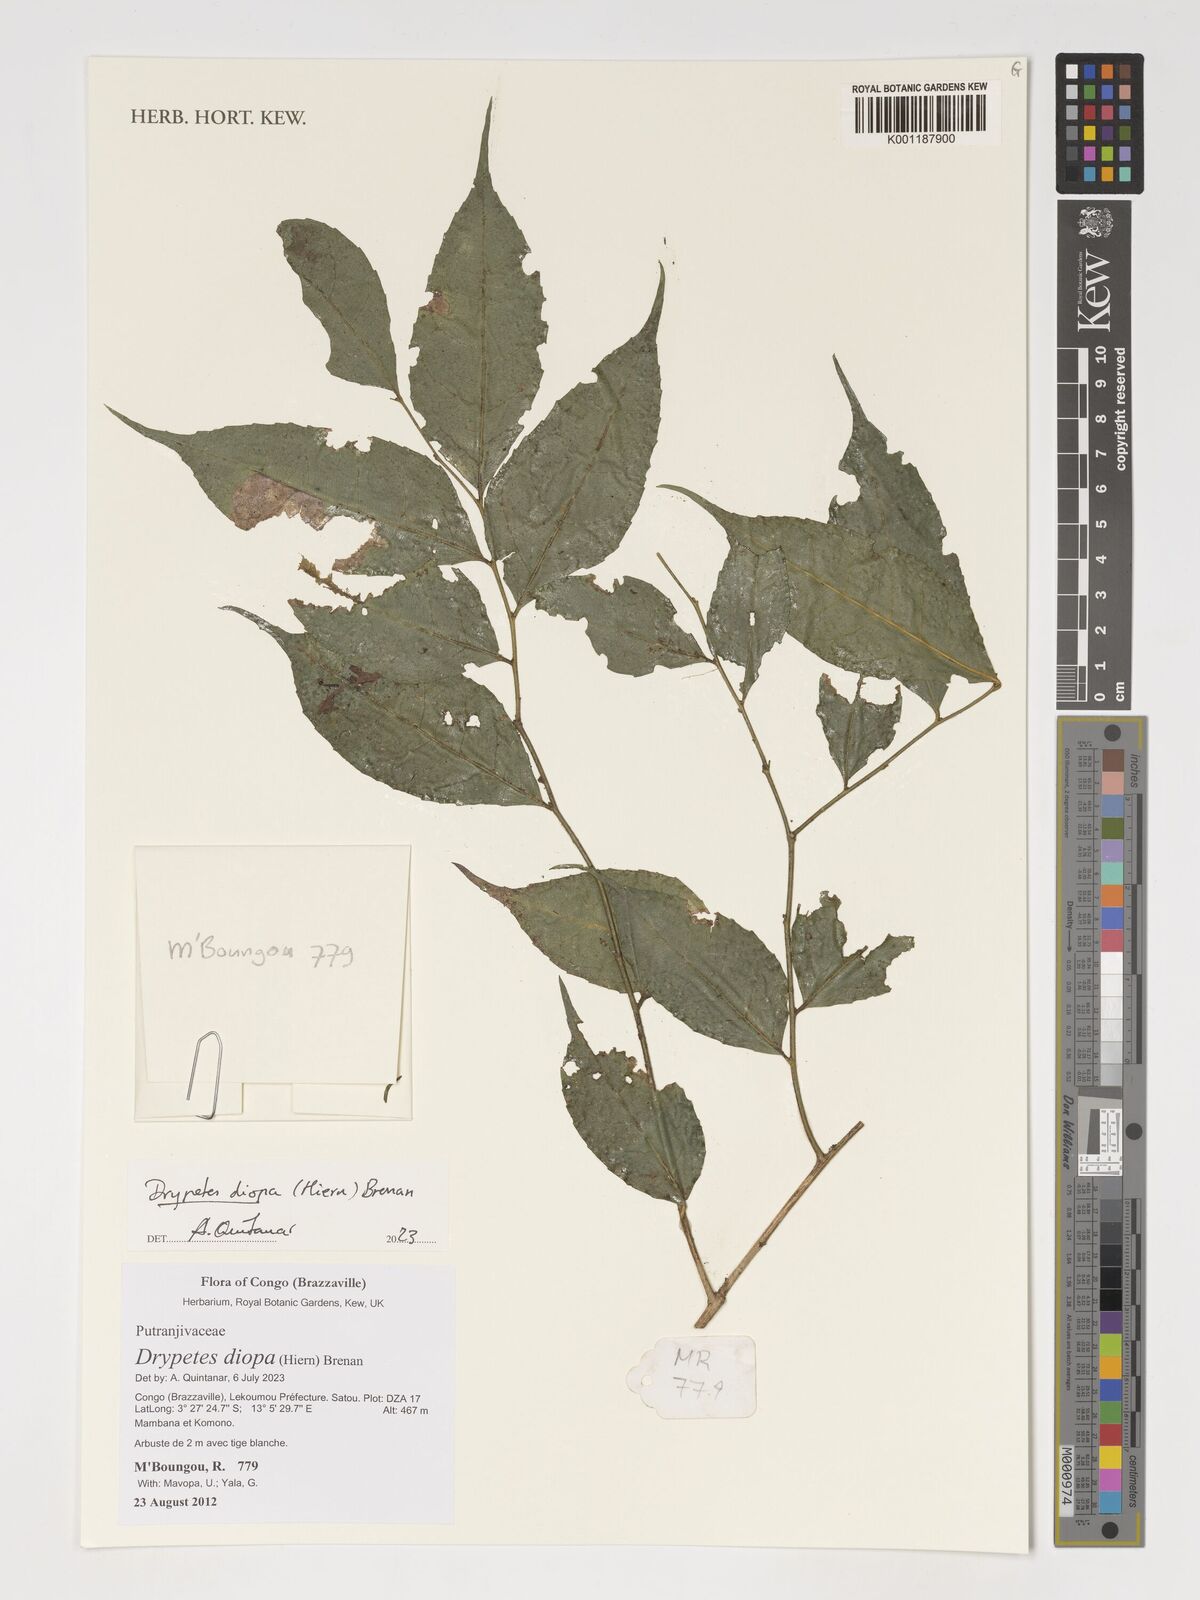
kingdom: Plantae
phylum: Tracheophyta
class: Magnoliopsida
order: Malpighiales
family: Putranjivaceae
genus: Drypetes
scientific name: Drypetes diopa
